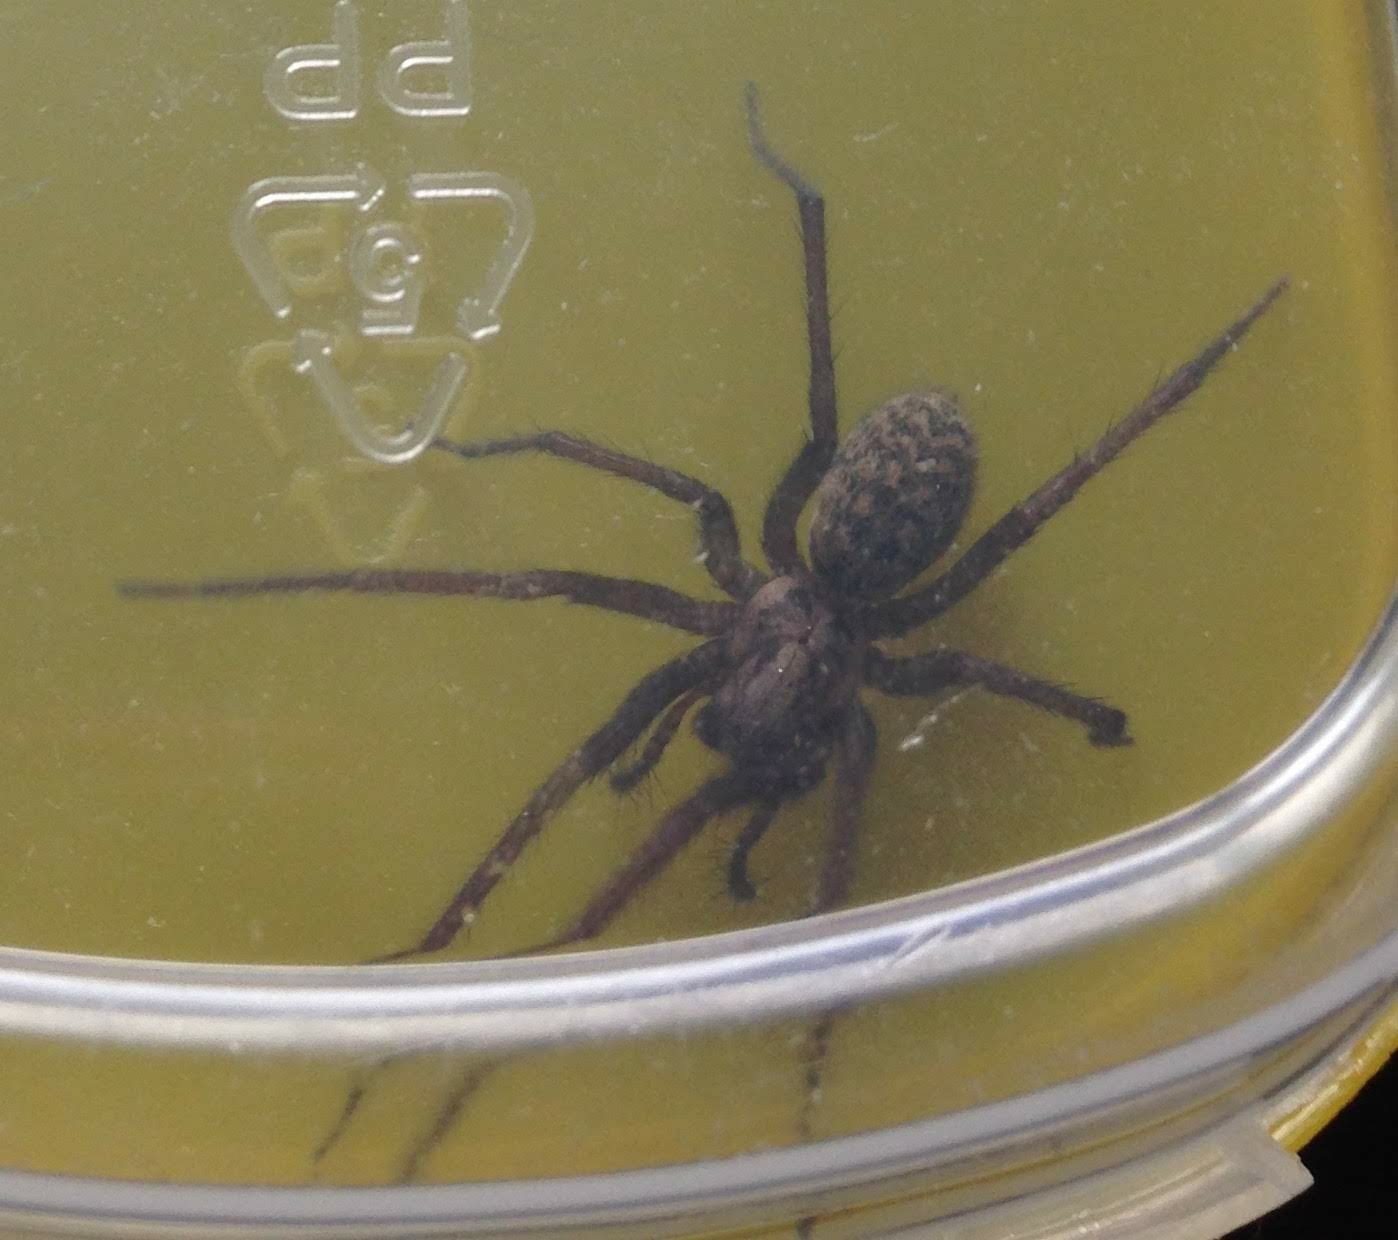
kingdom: Animalia
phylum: Arthropoda
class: Arachnida
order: Araneae
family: Agelenidae
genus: Eratigena
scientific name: Eratigena atrica
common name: Stor husedderkop
